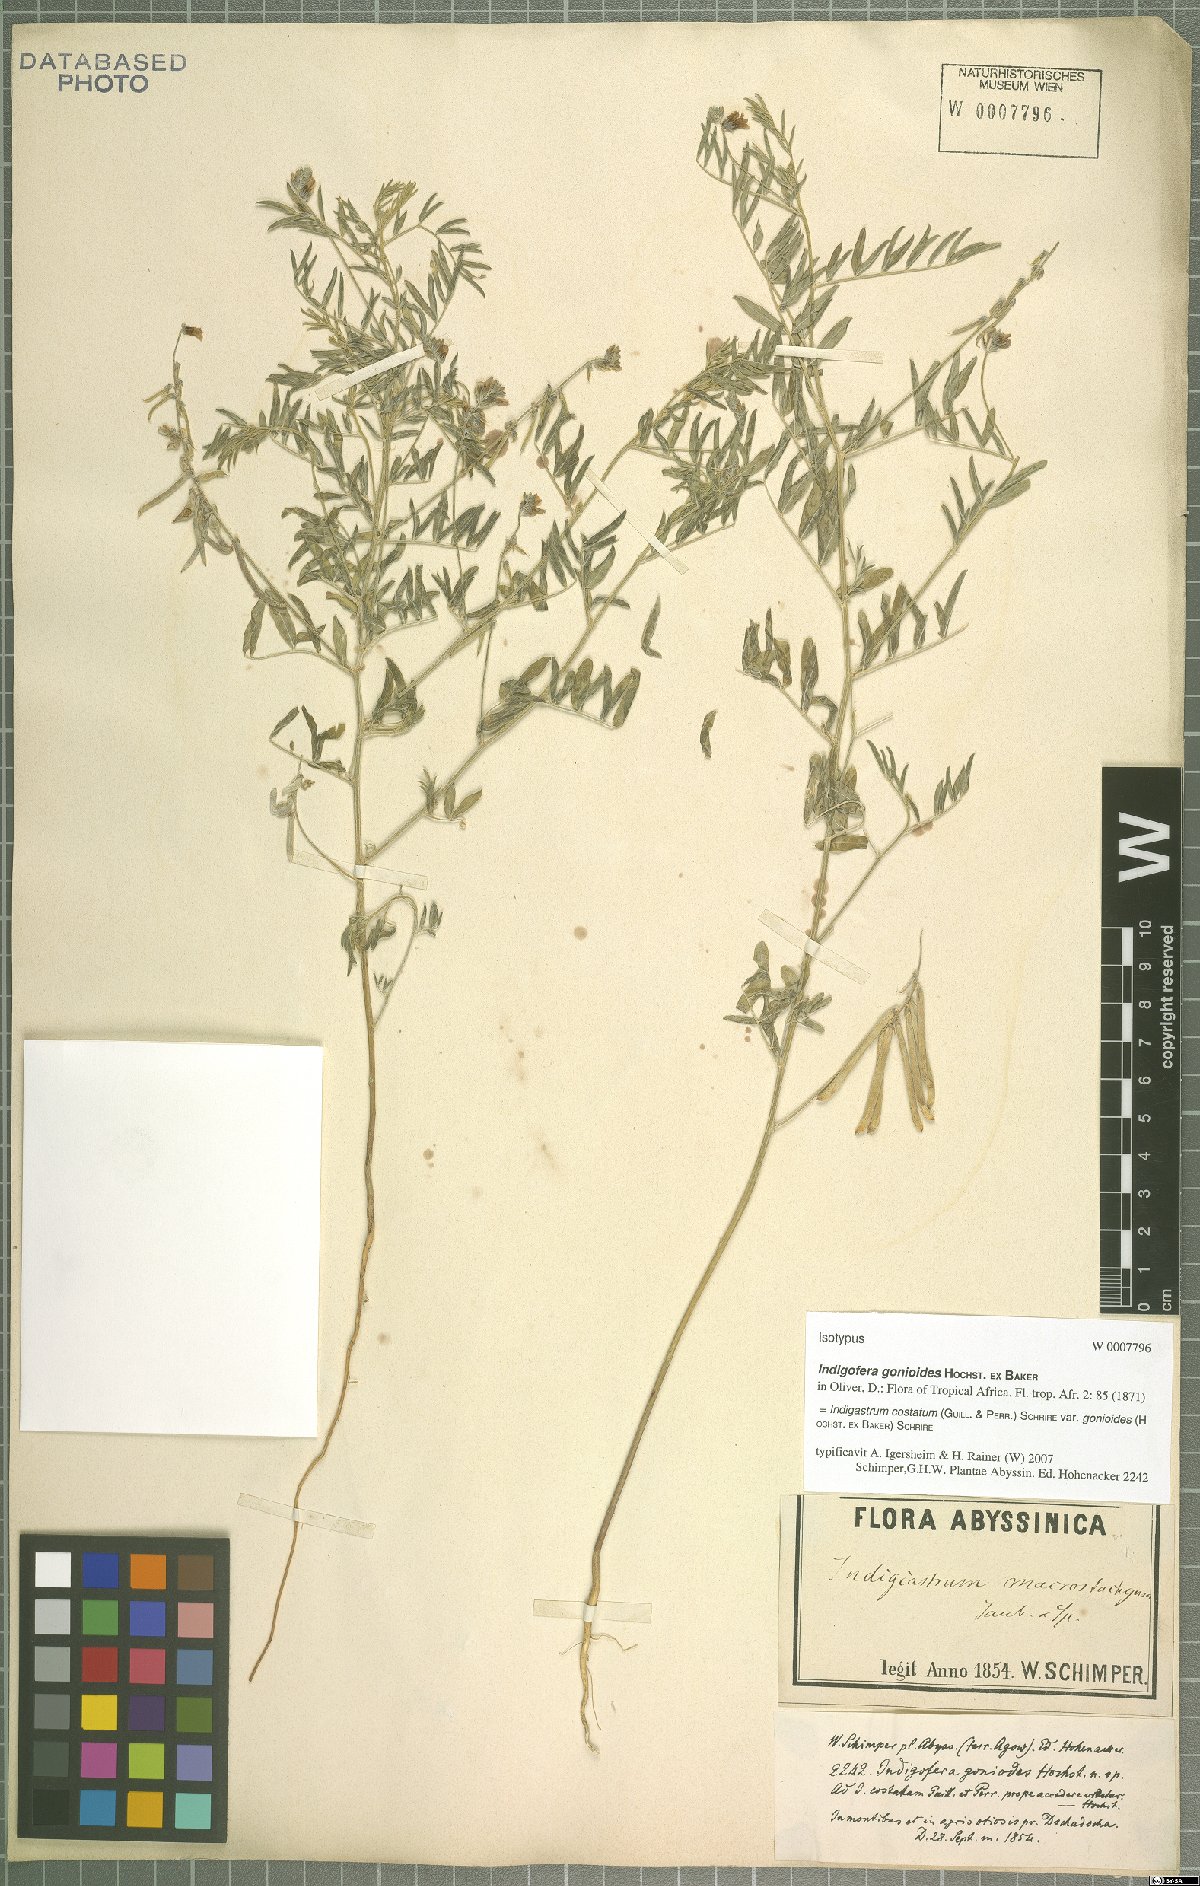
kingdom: Plantae
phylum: Tracheophyta
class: Magnoliopsida
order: Fabales
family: Fabaceae
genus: Indigastrum
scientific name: Indigastrum costatum
